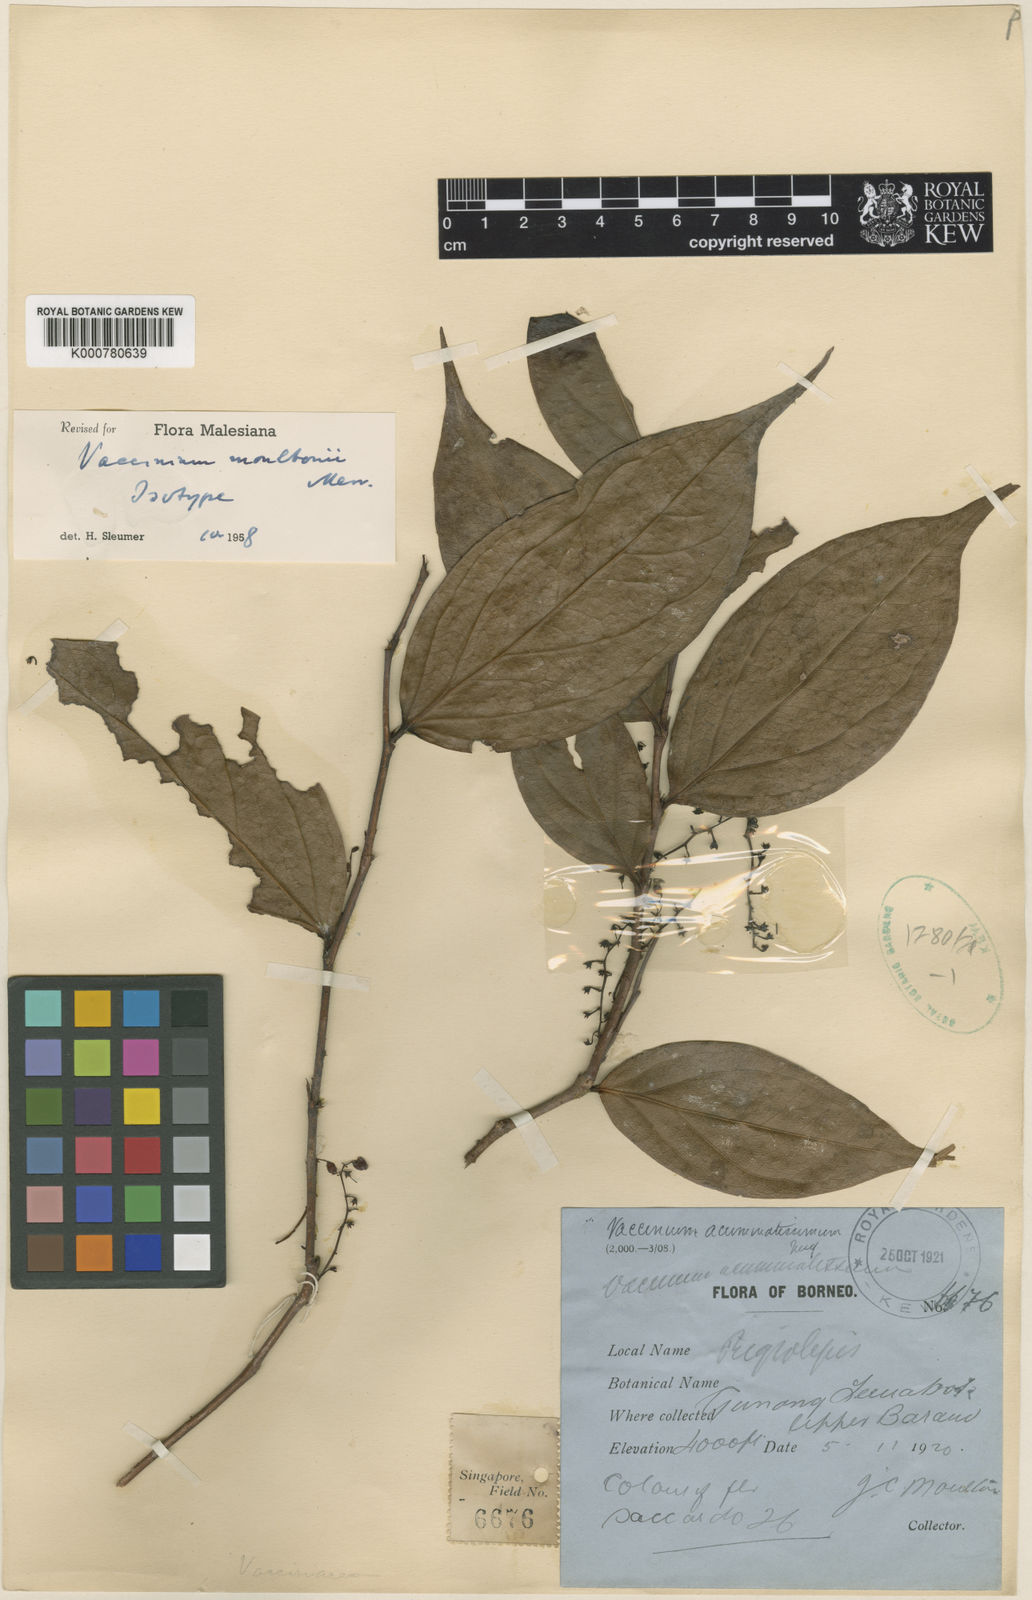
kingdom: Plantae
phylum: Tracheophyta
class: Magnoliopsida
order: Ericales
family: Ericaceae
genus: Rigiolepis
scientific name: Rigiolepis moultonii
